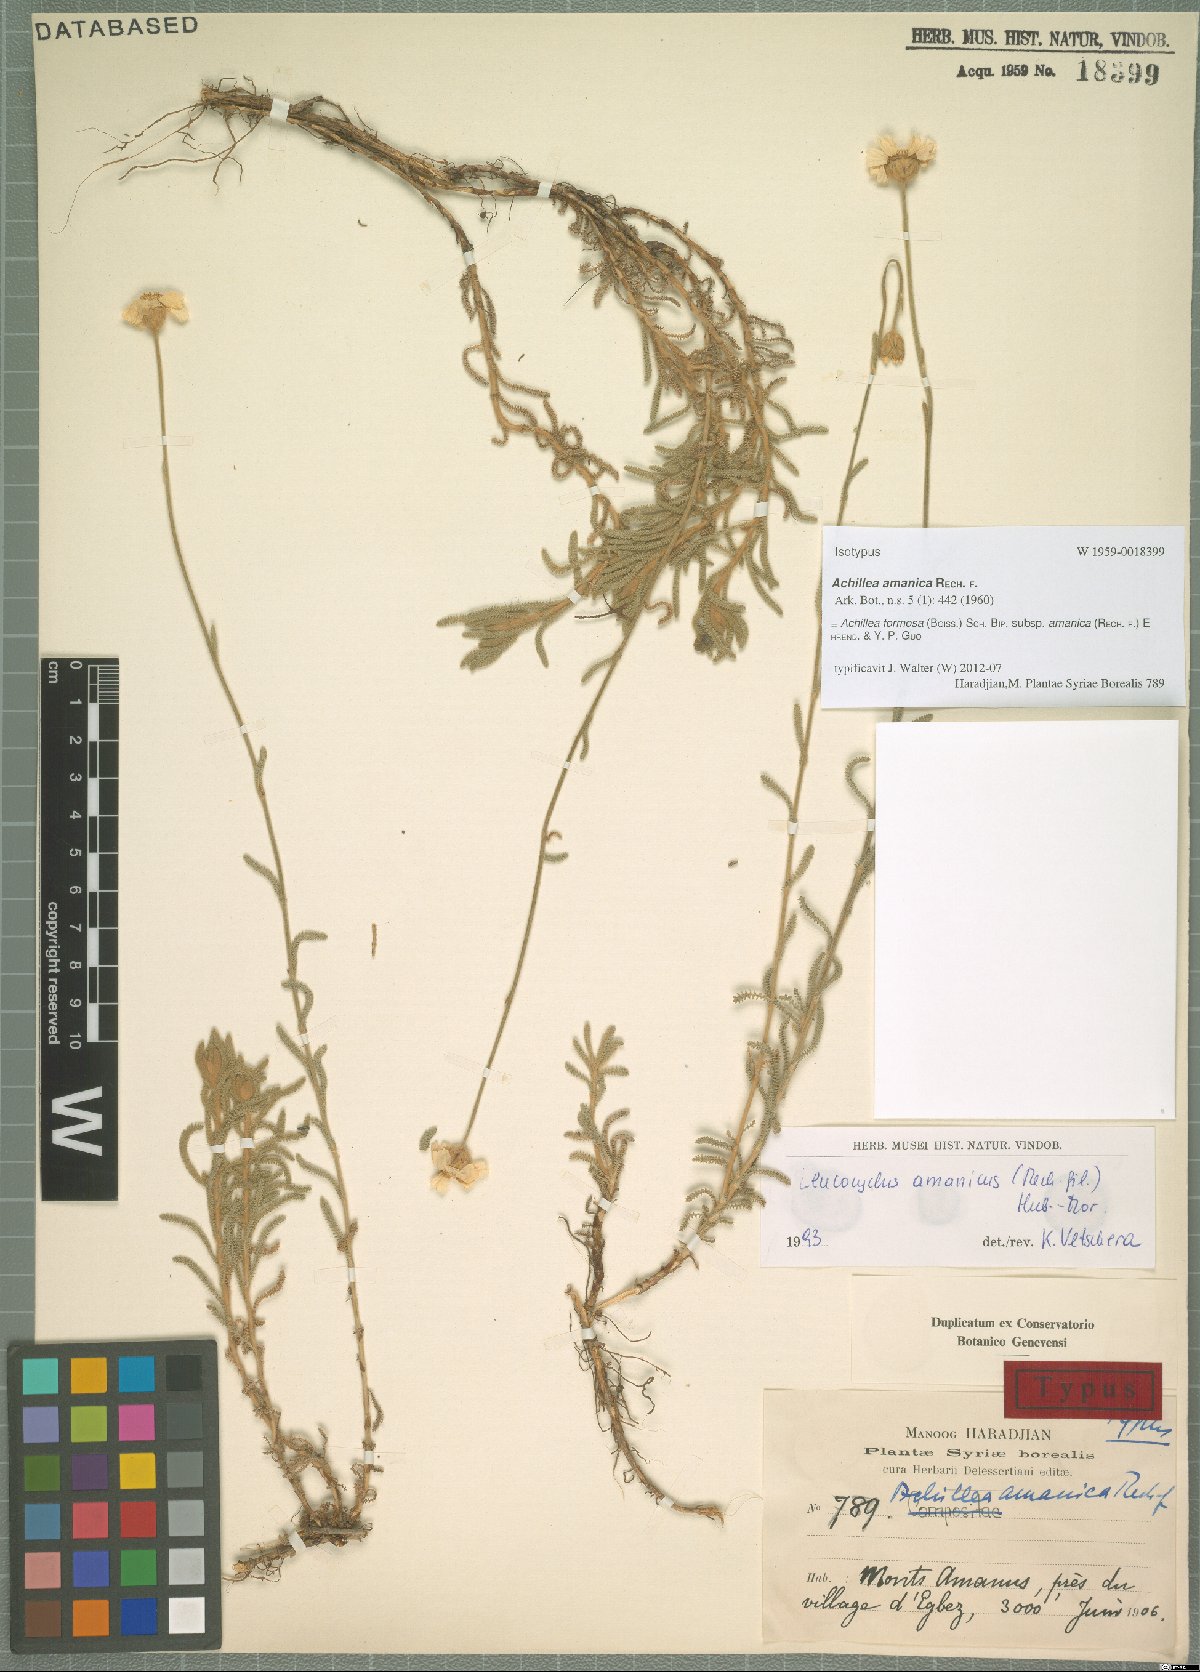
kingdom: Plantae
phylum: Tracheophyta
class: Magnoliopsida
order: Asterales
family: Asteraceae
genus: Achillea
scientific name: Achillea formosa
